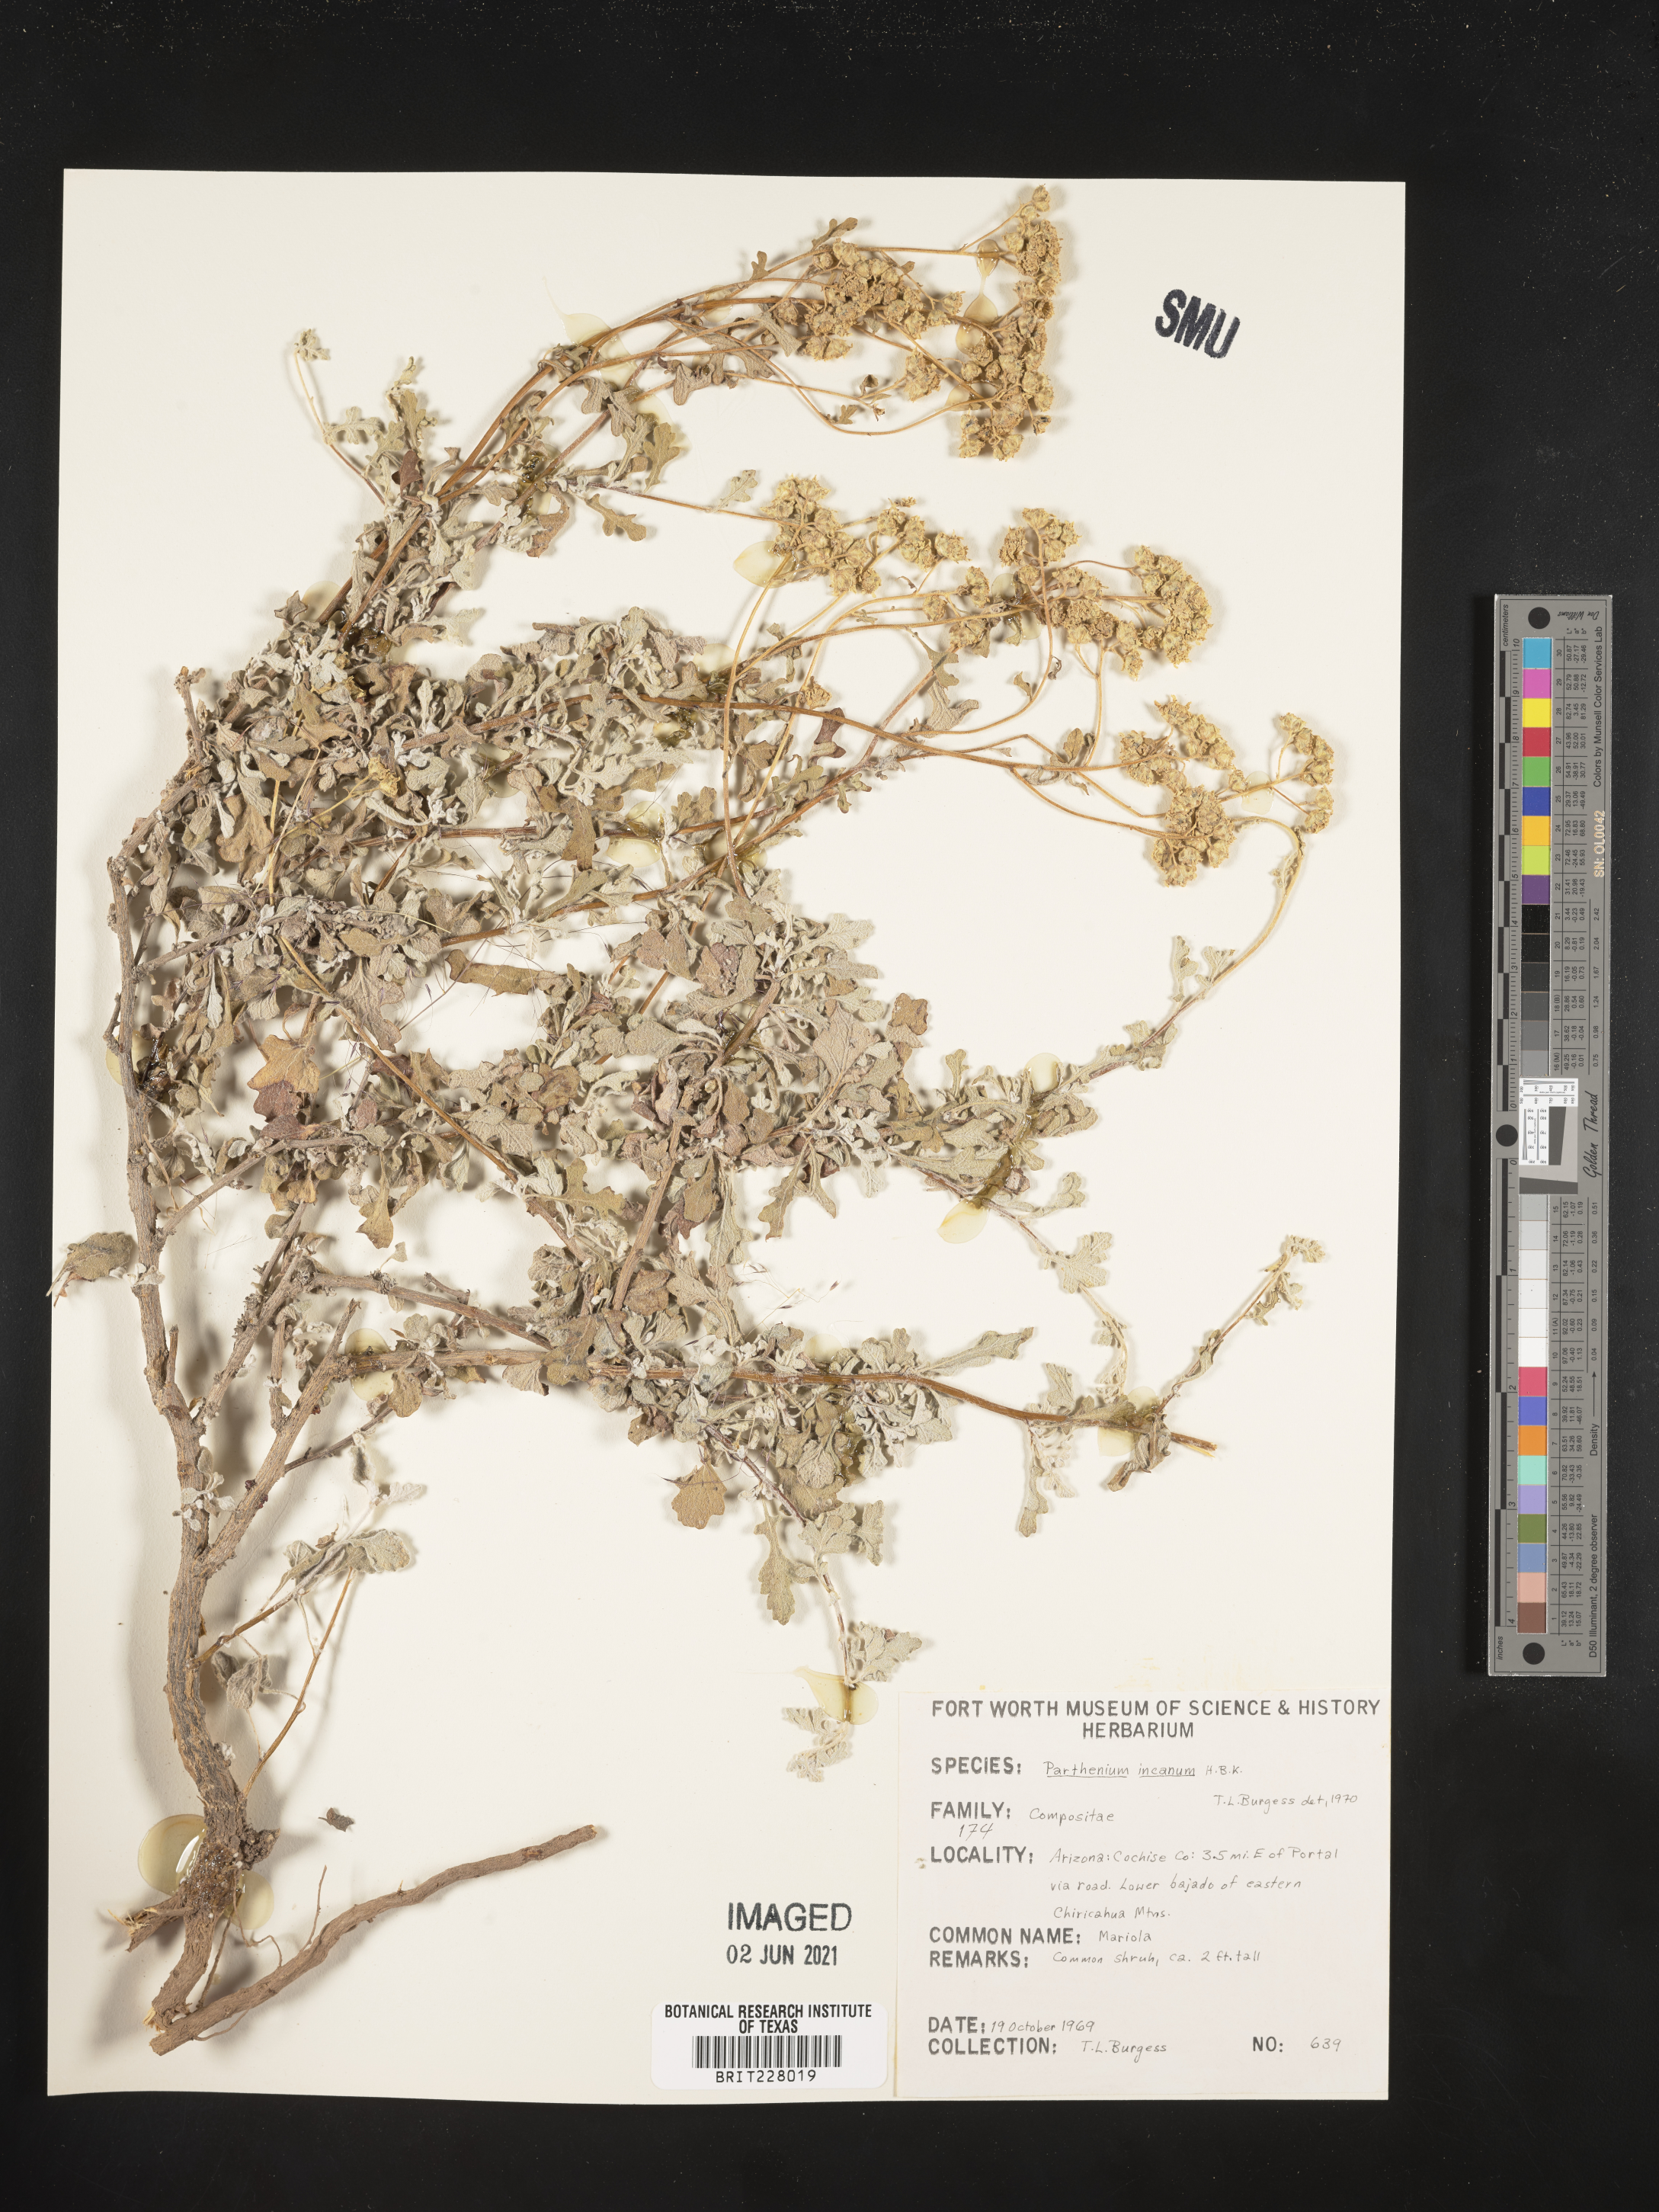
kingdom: Plantae
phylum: Tracheophyta
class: Magnoliopsida
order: Asterales
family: Asteraceae
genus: Parthenium
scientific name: Parthenium incanum
